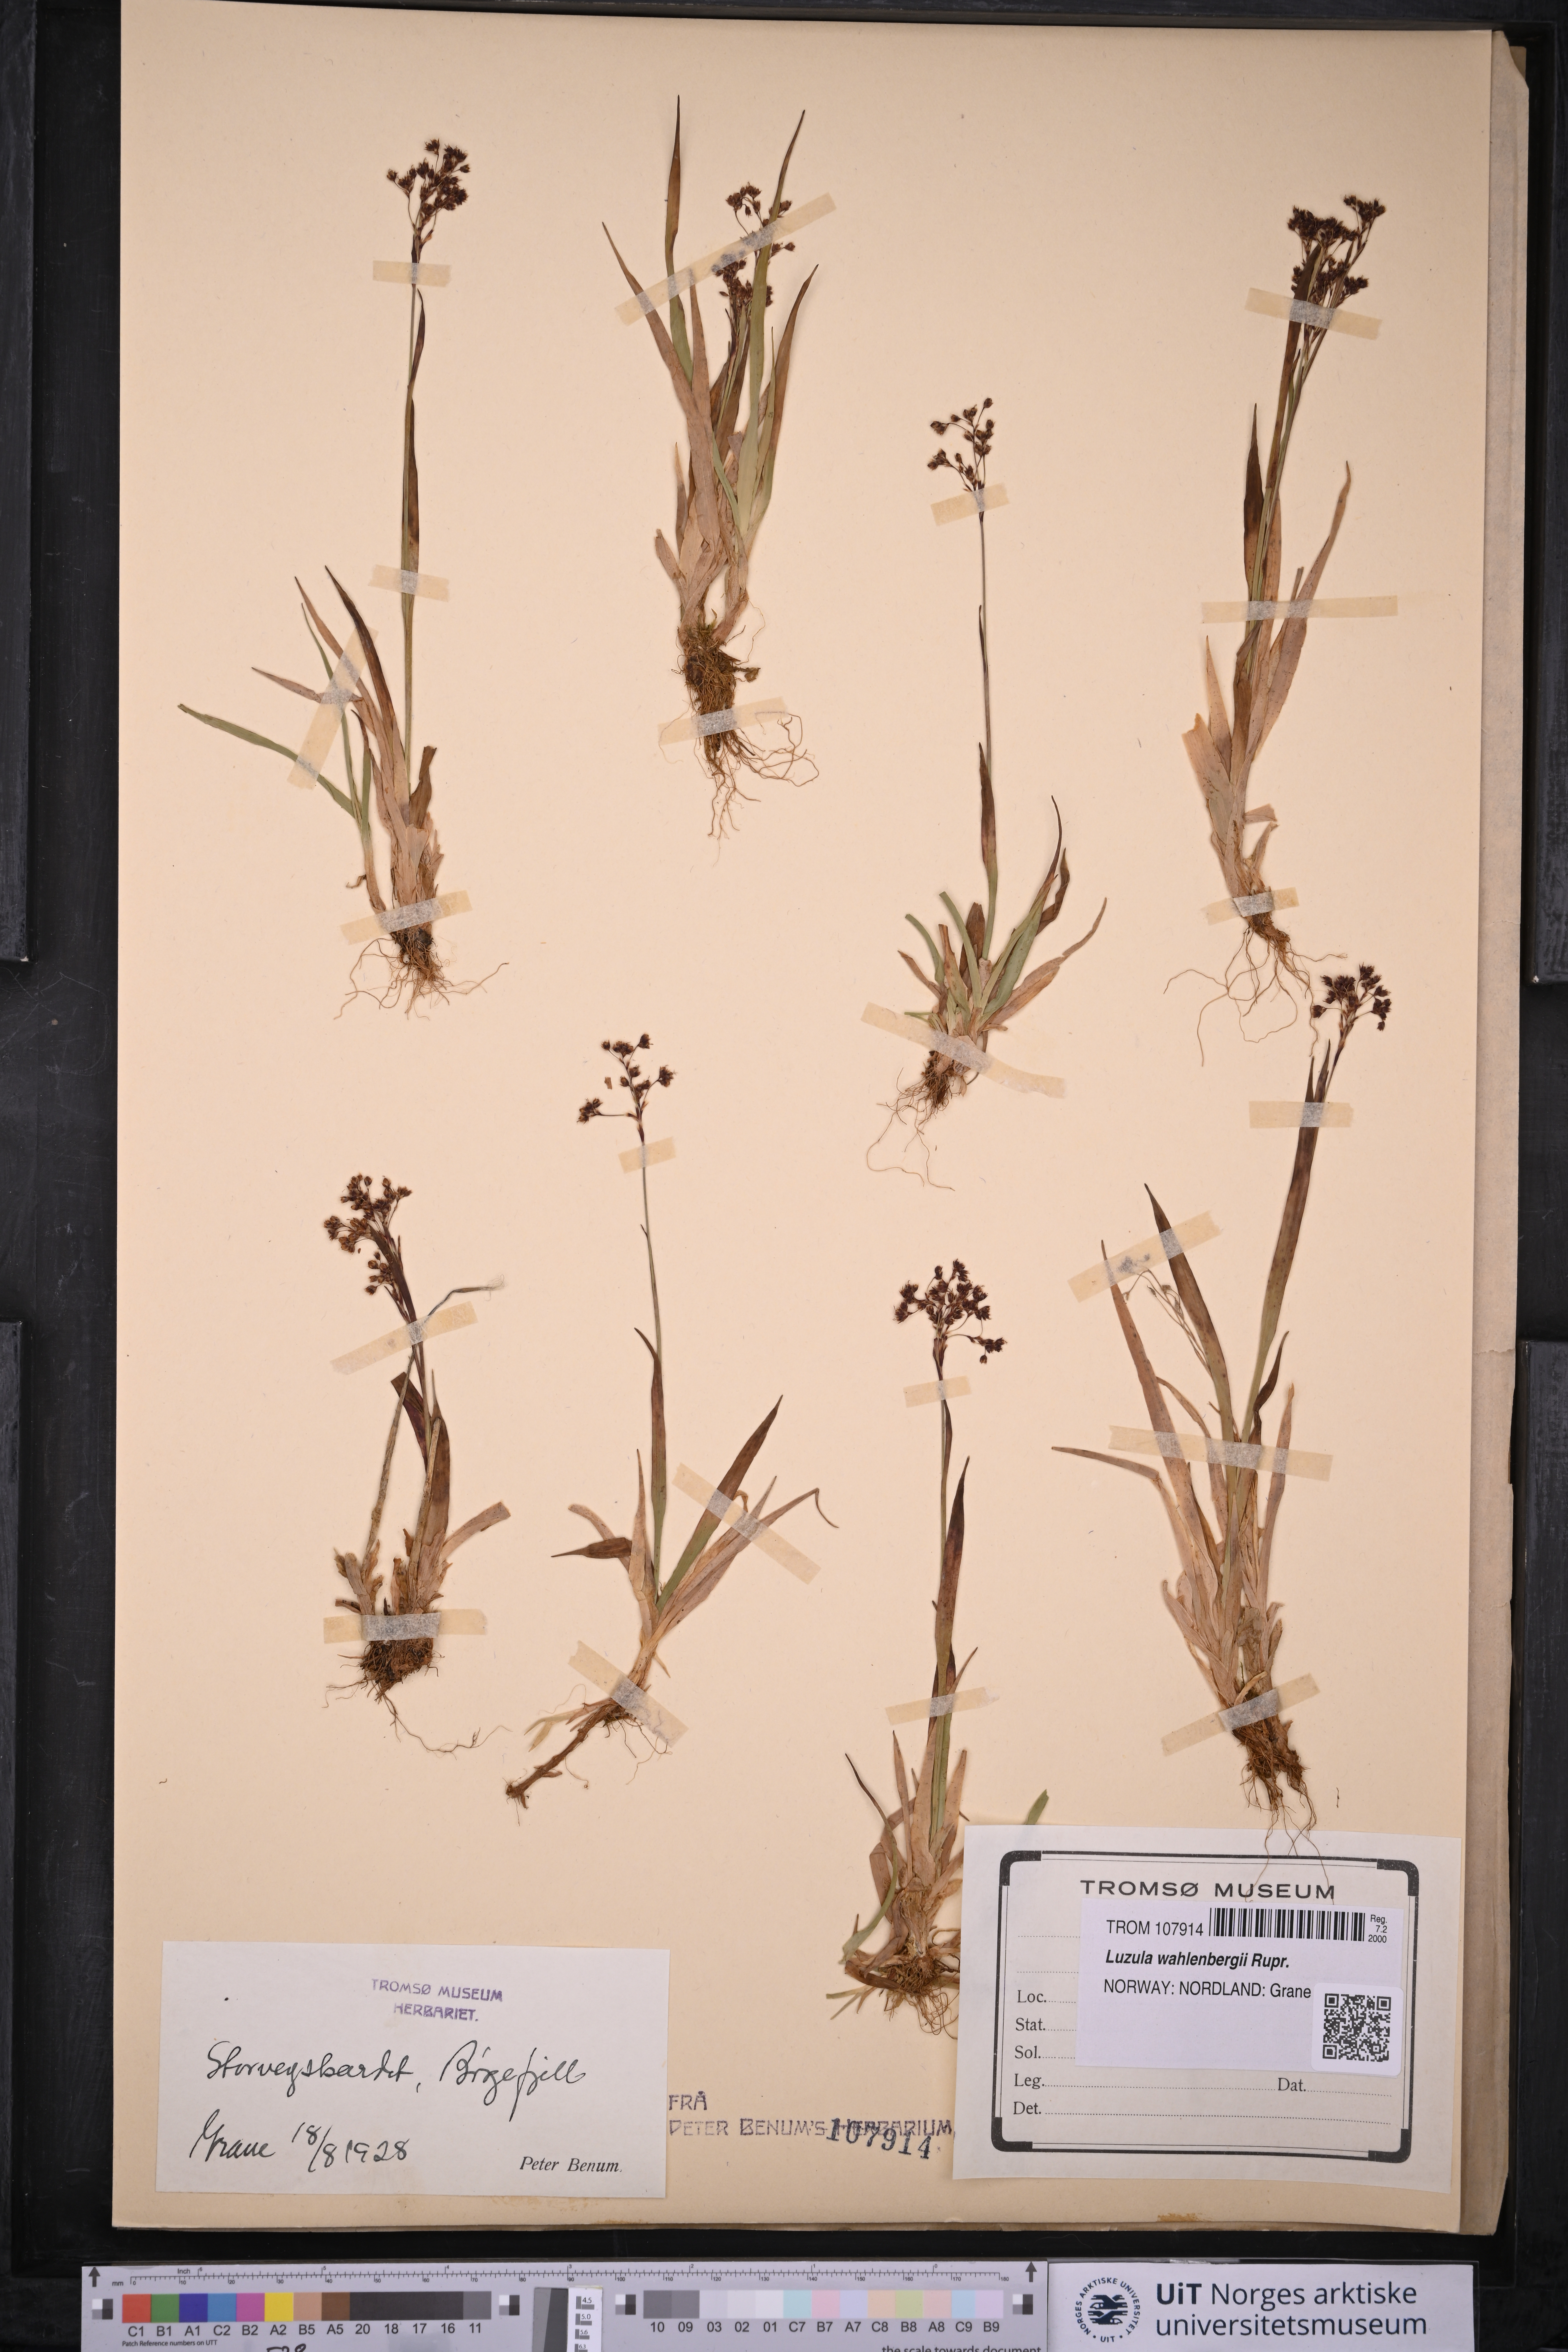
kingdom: Plantae
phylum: Tracheophyta
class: Liliopsida
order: Poales
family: Juncaceae
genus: Luzula
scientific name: Luzula wahlenbergii
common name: Wahlenberg's wood-rush
